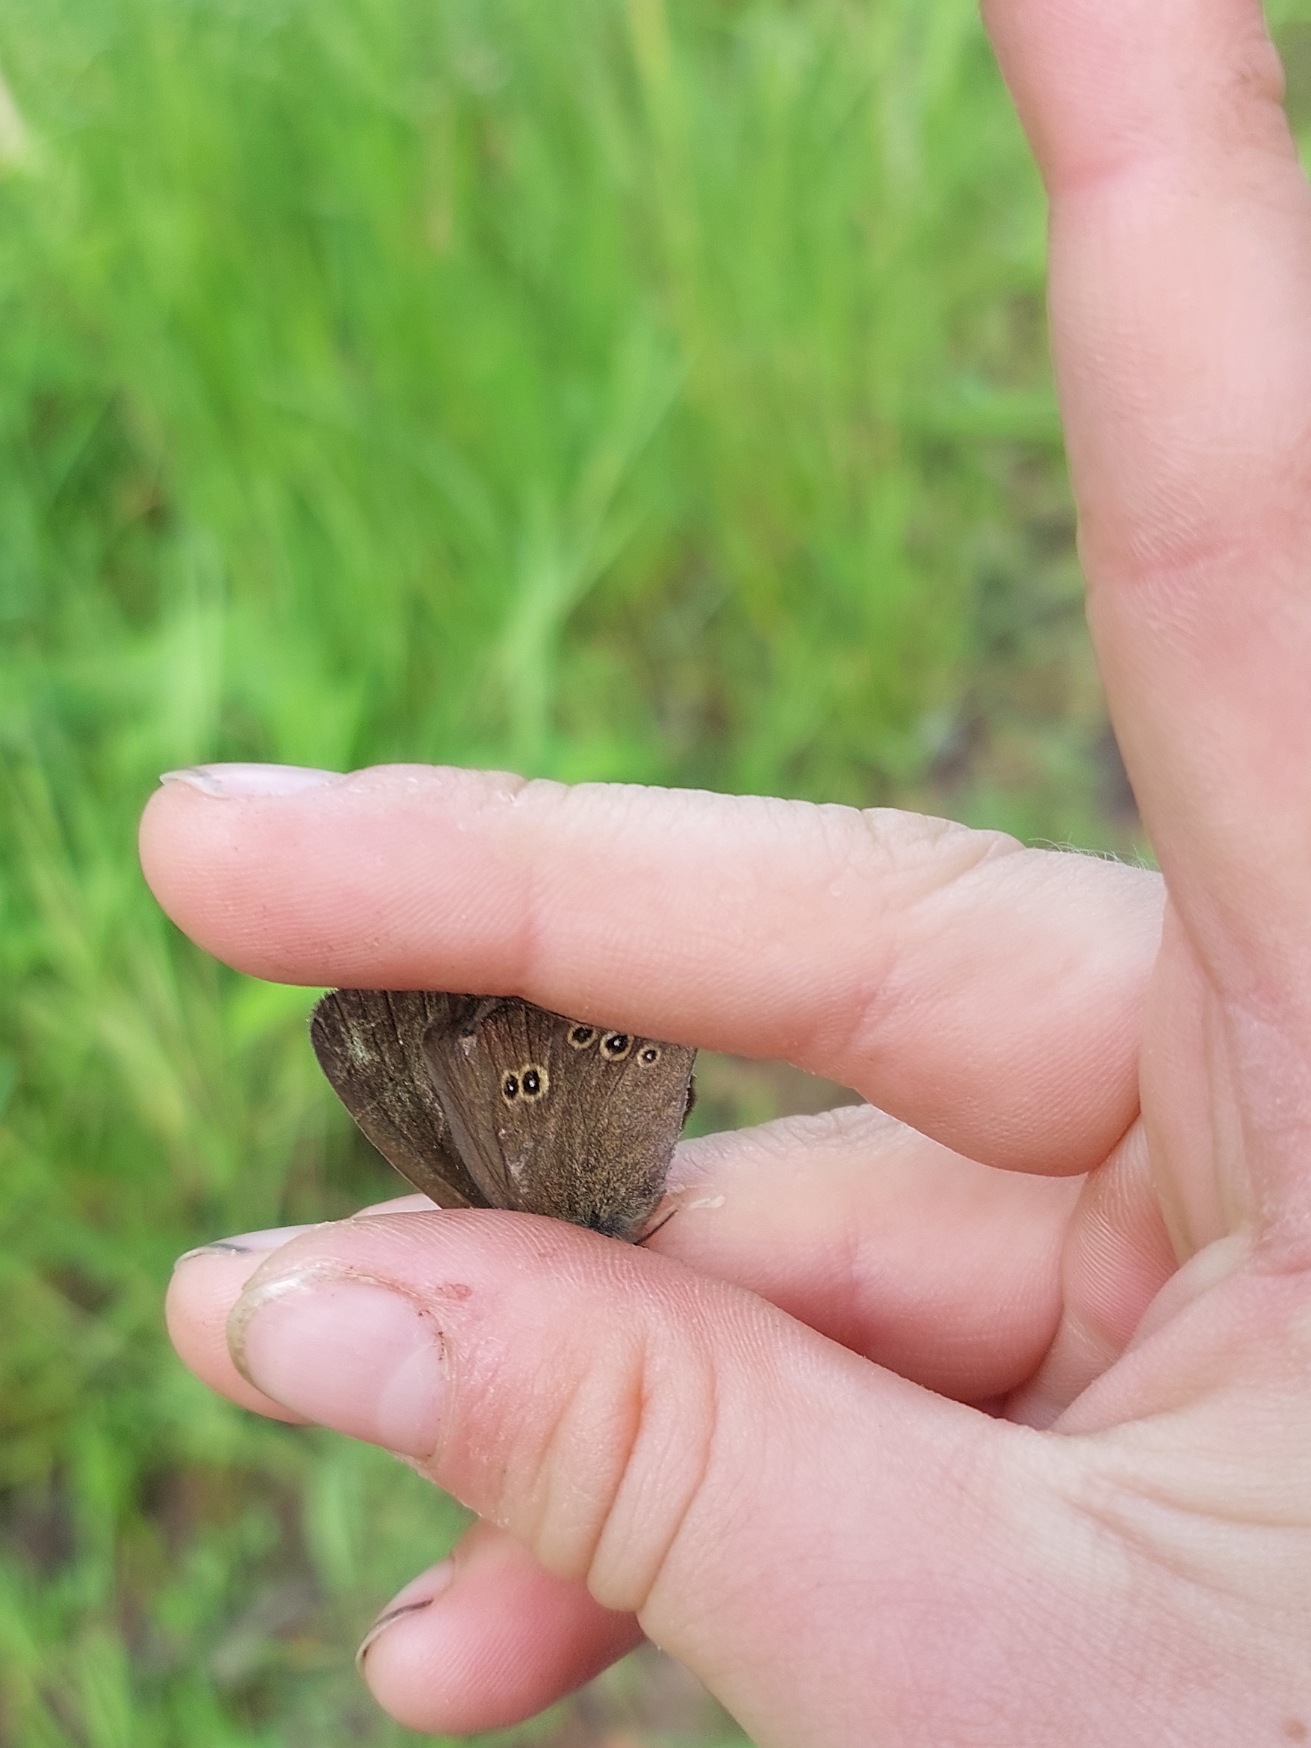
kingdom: Animalia
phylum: Arthropoda
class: Insecta
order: Lepidoptera
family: Nymphalidae
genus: Aphantopus
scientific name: Aphantopus hyperantus
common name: Engrandøje
